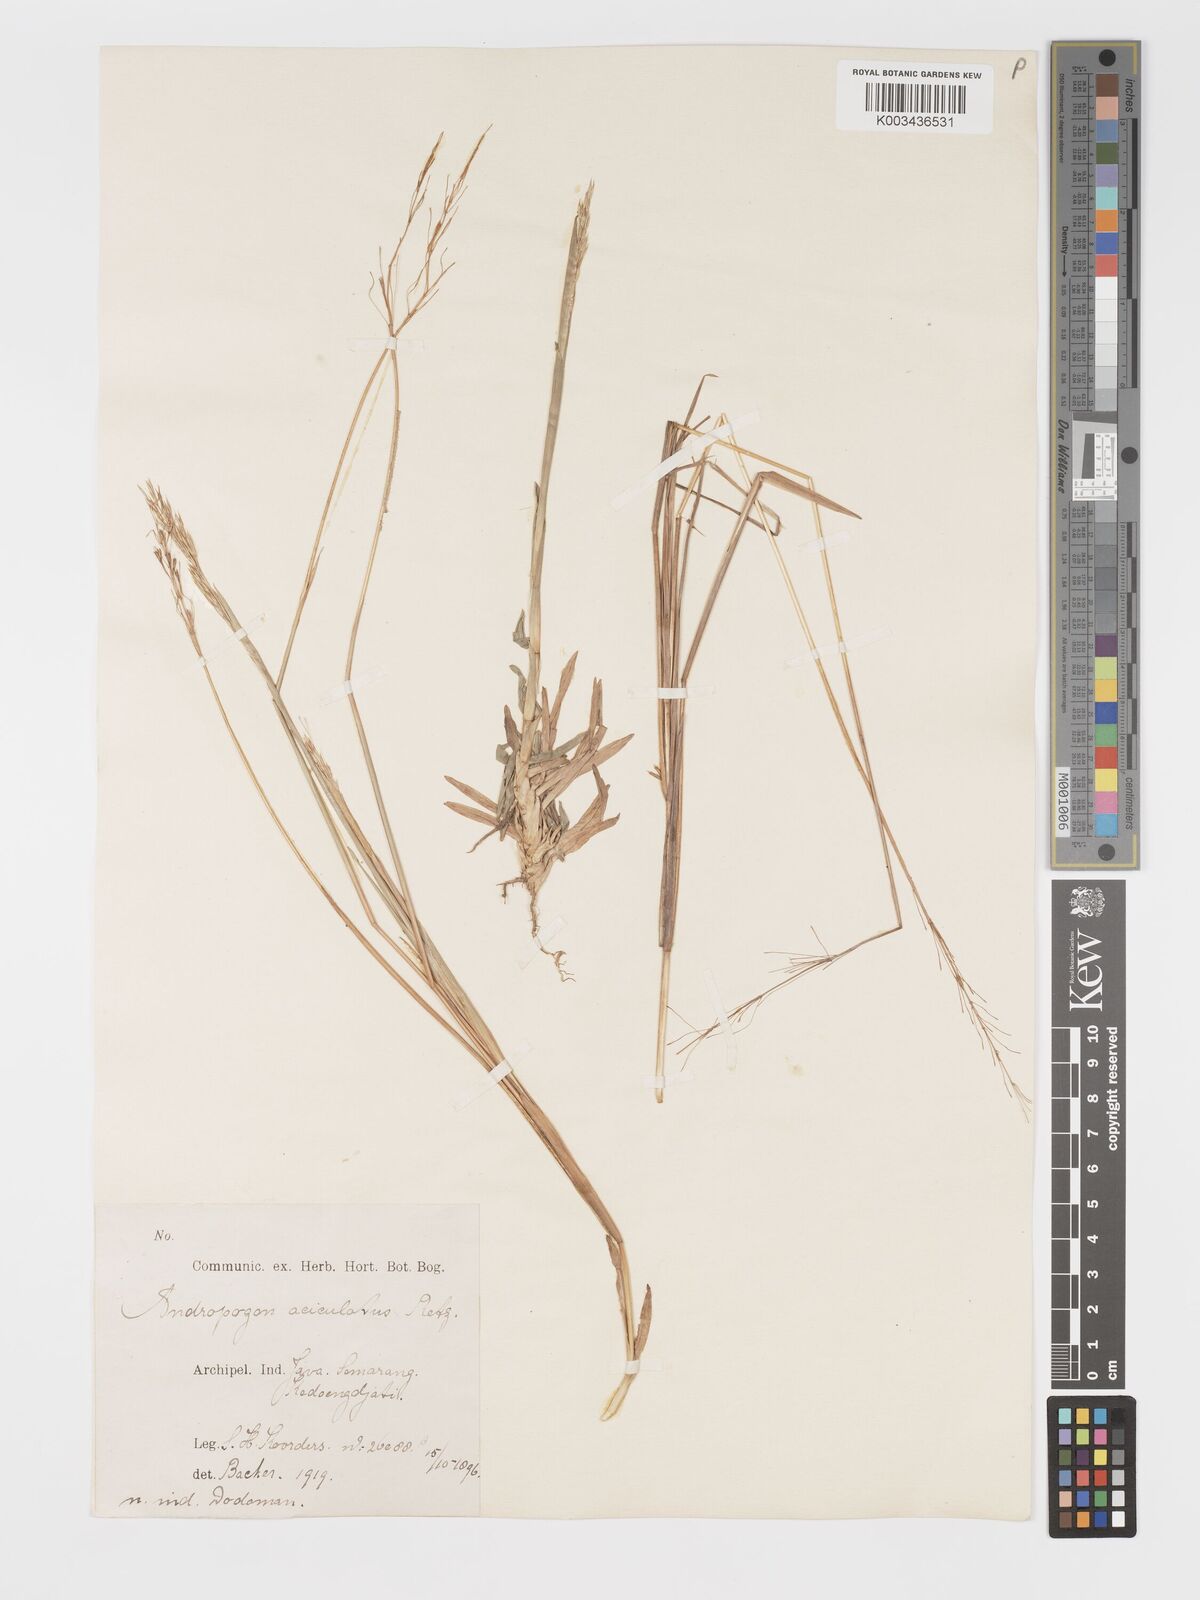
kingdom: Plantae
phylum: Tracheophyta
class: Liliopsida
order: Poales
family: Poaceae
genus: Chrysopogon
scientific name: Chrysopogon aciculatus
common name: Pilipiliula
